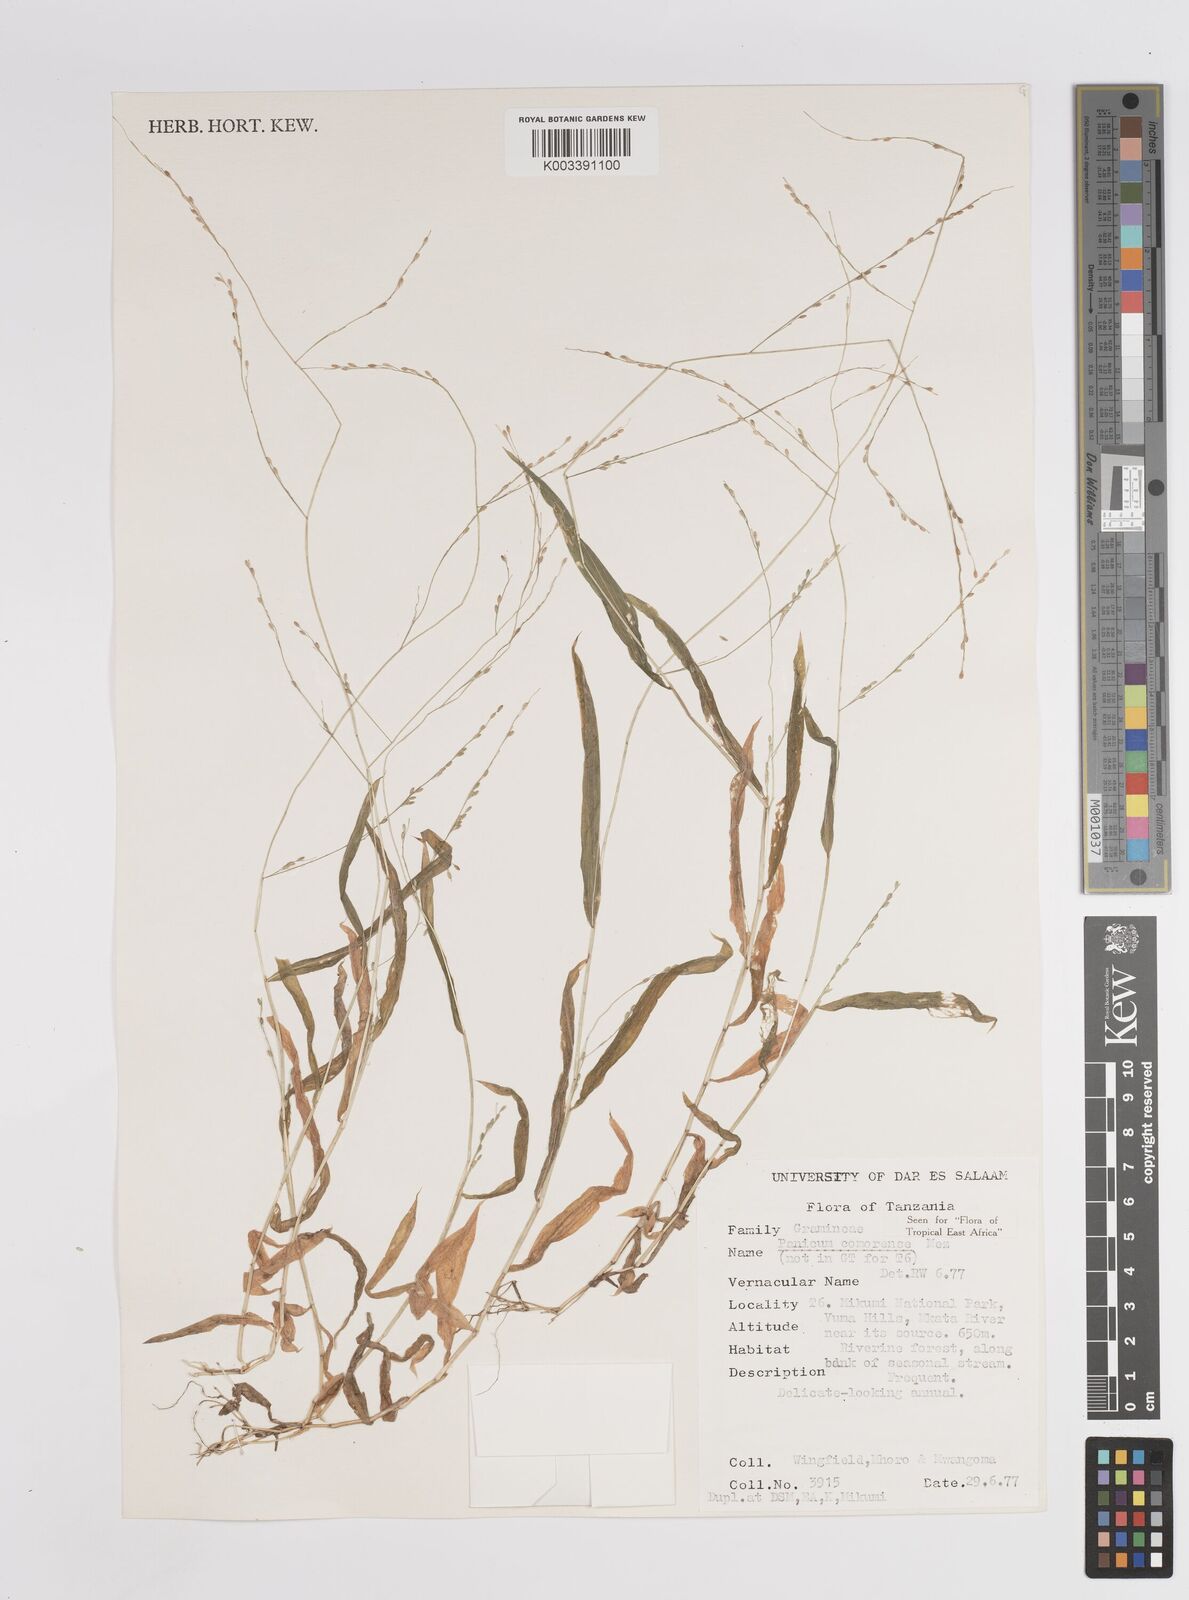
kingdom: Plantae
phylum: Tracheophyta
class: Liliopsida
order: Poales
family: Poaceae
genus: Panicum
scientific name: Panicum comorense
